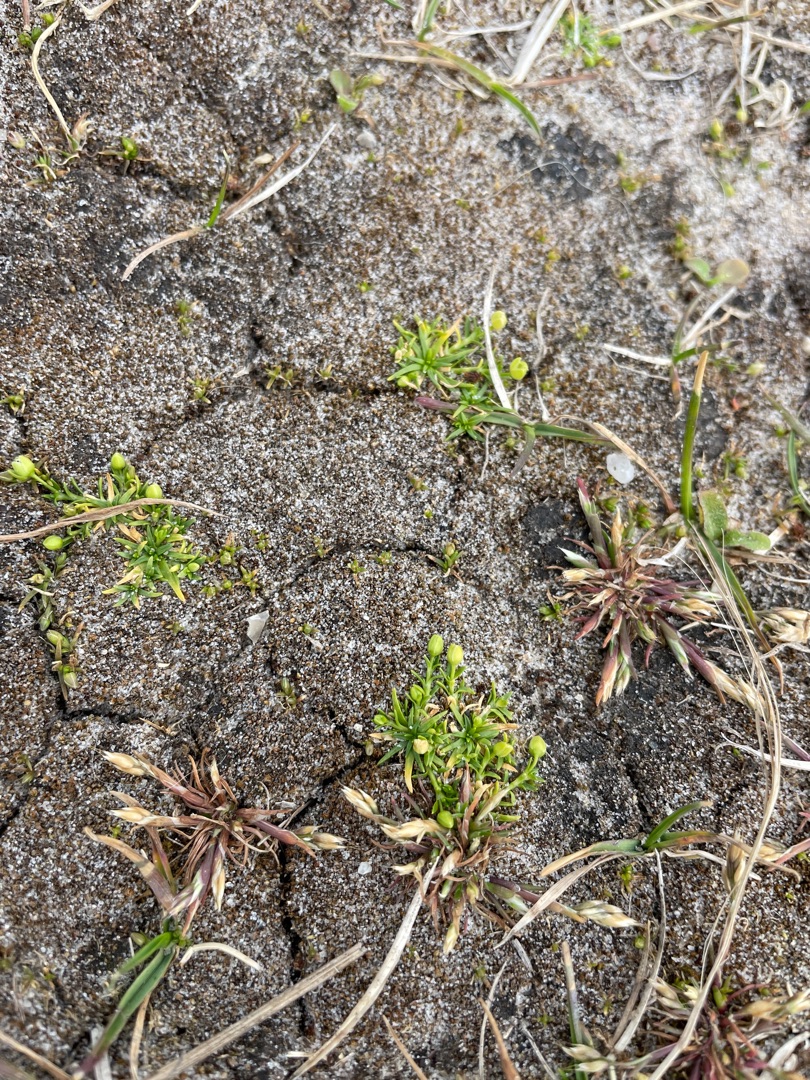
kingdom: Plantae
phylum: Tracheophyta
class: Magnoliopsida
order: Caryophyllales
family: Caryophyllaceae
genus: Sagina
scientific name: Sagina procumbens
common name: Almindelig firling
